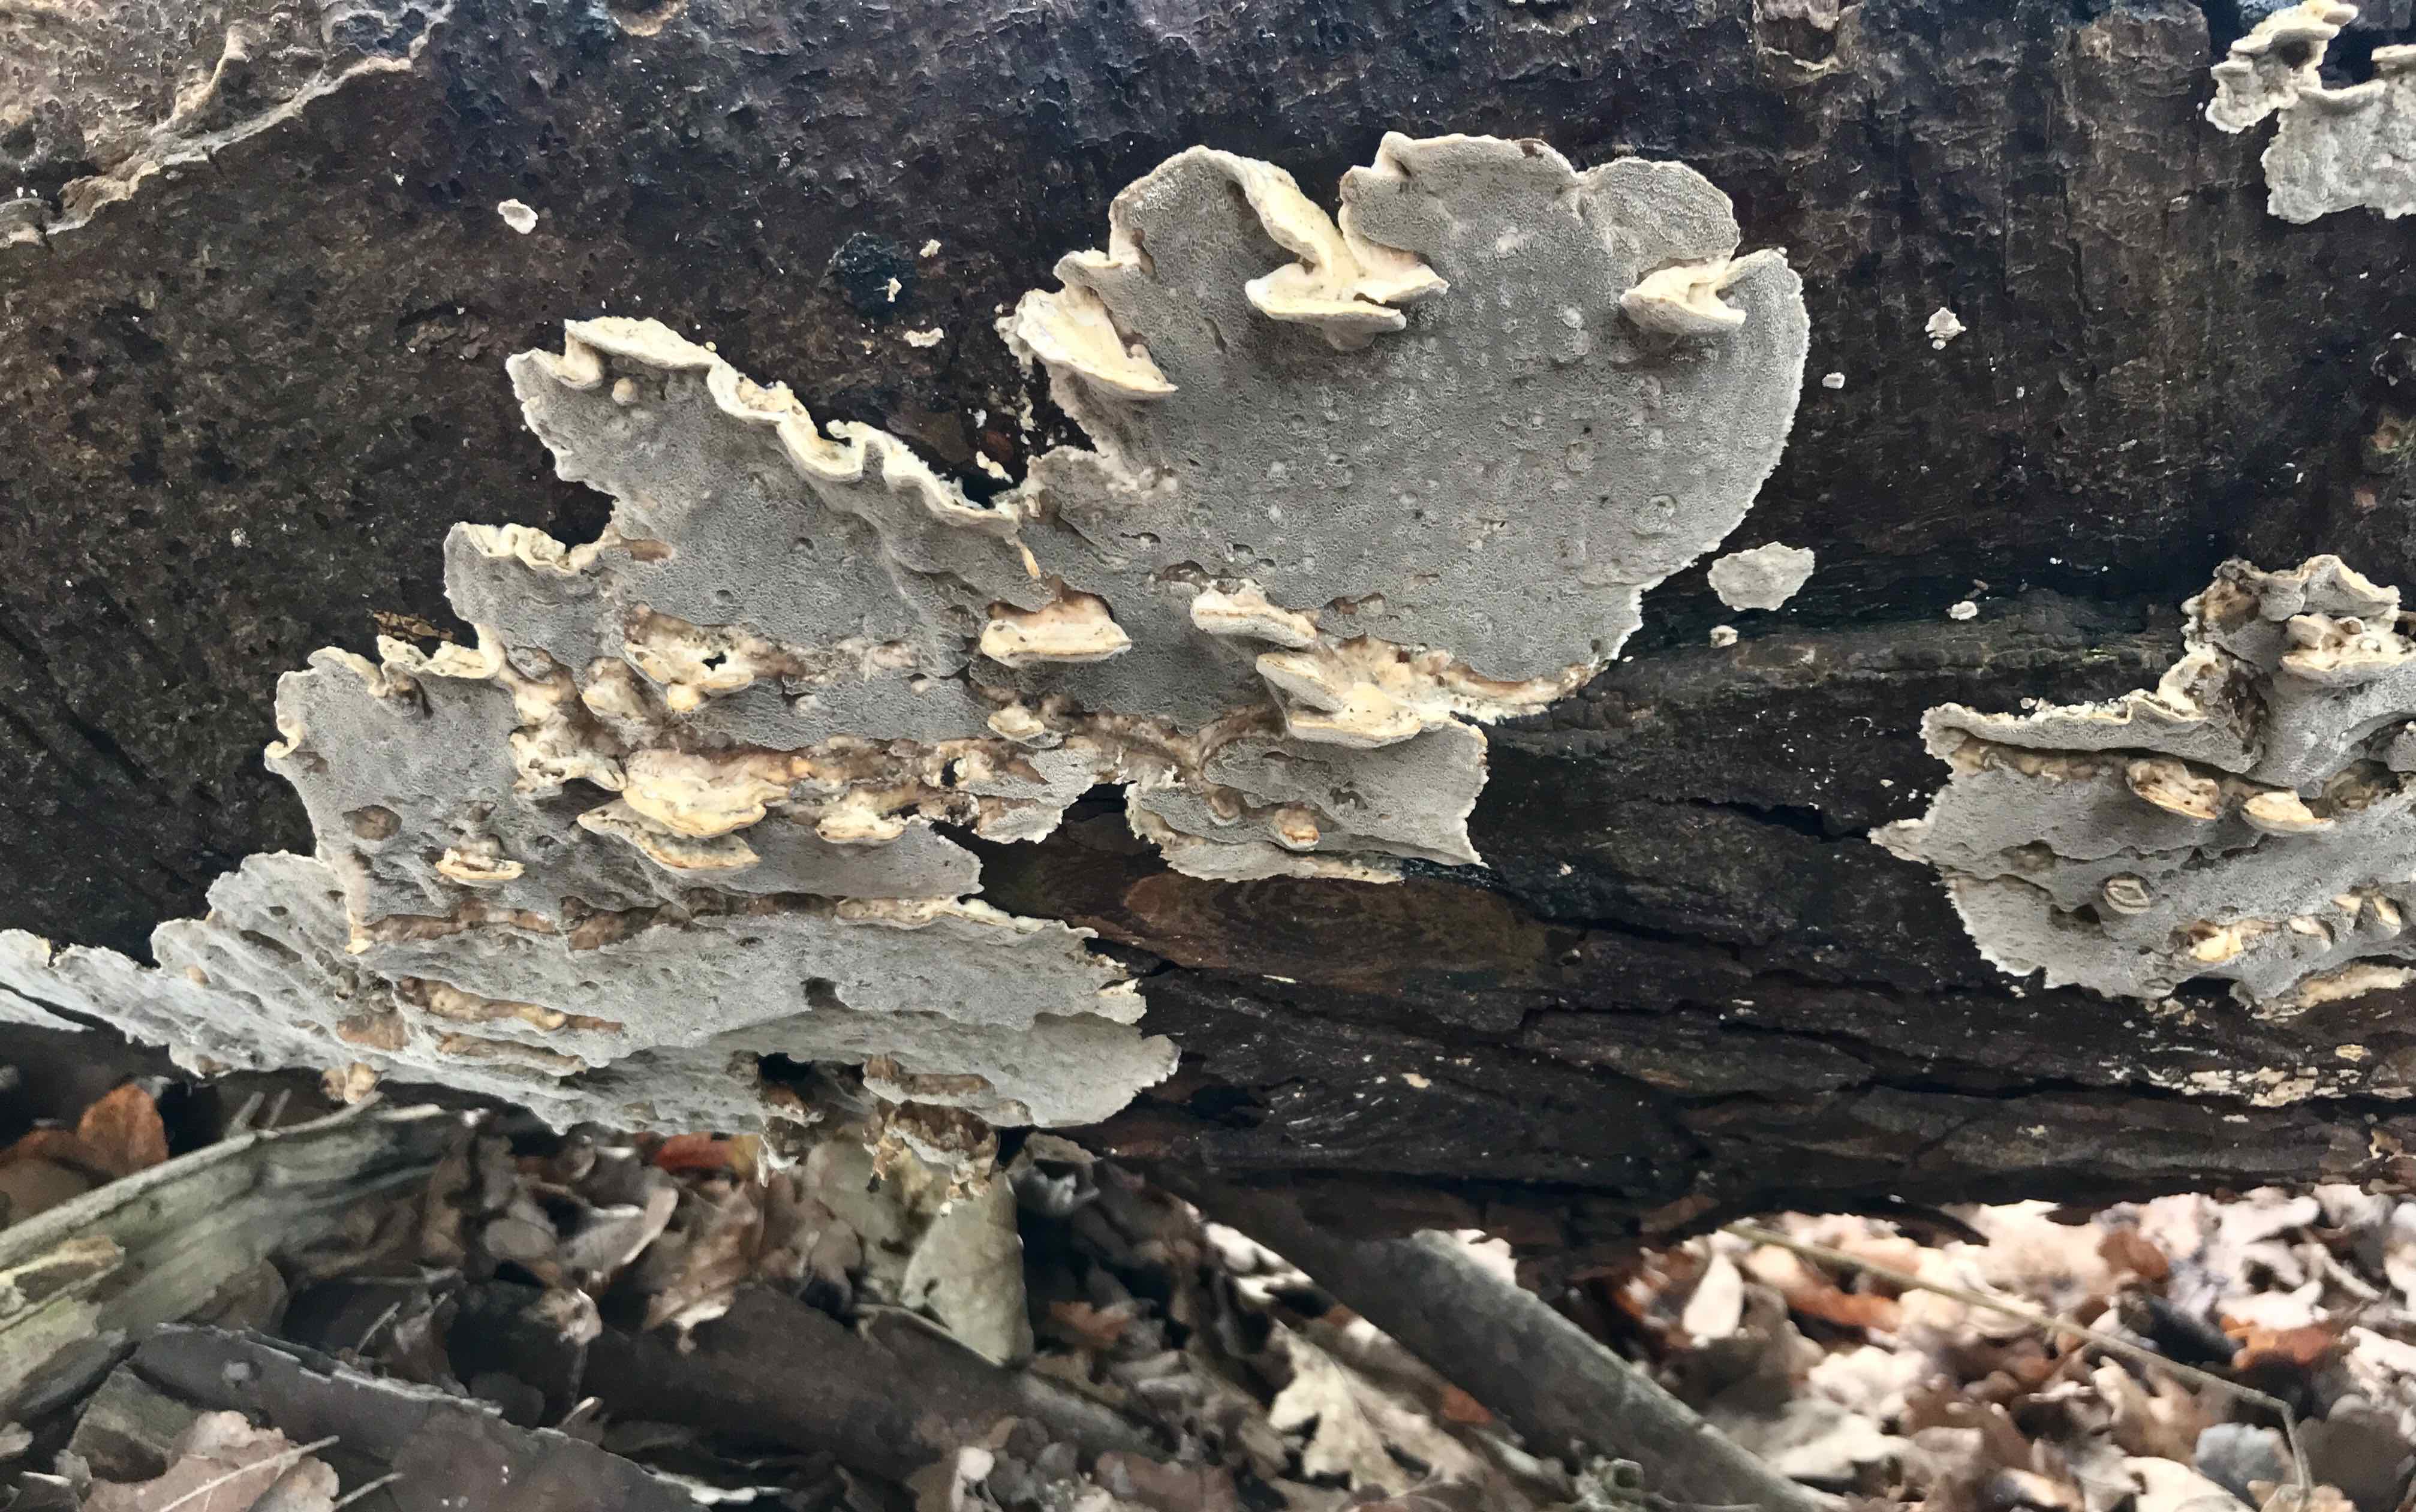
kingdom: Fungi
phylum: Basidiomycota
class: Agaricomycetes
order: Polyporales
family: Phanerochaetaceae
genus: Bjerkandera
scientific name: Bjerkandera adusta
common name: sveden sodporesvamp
